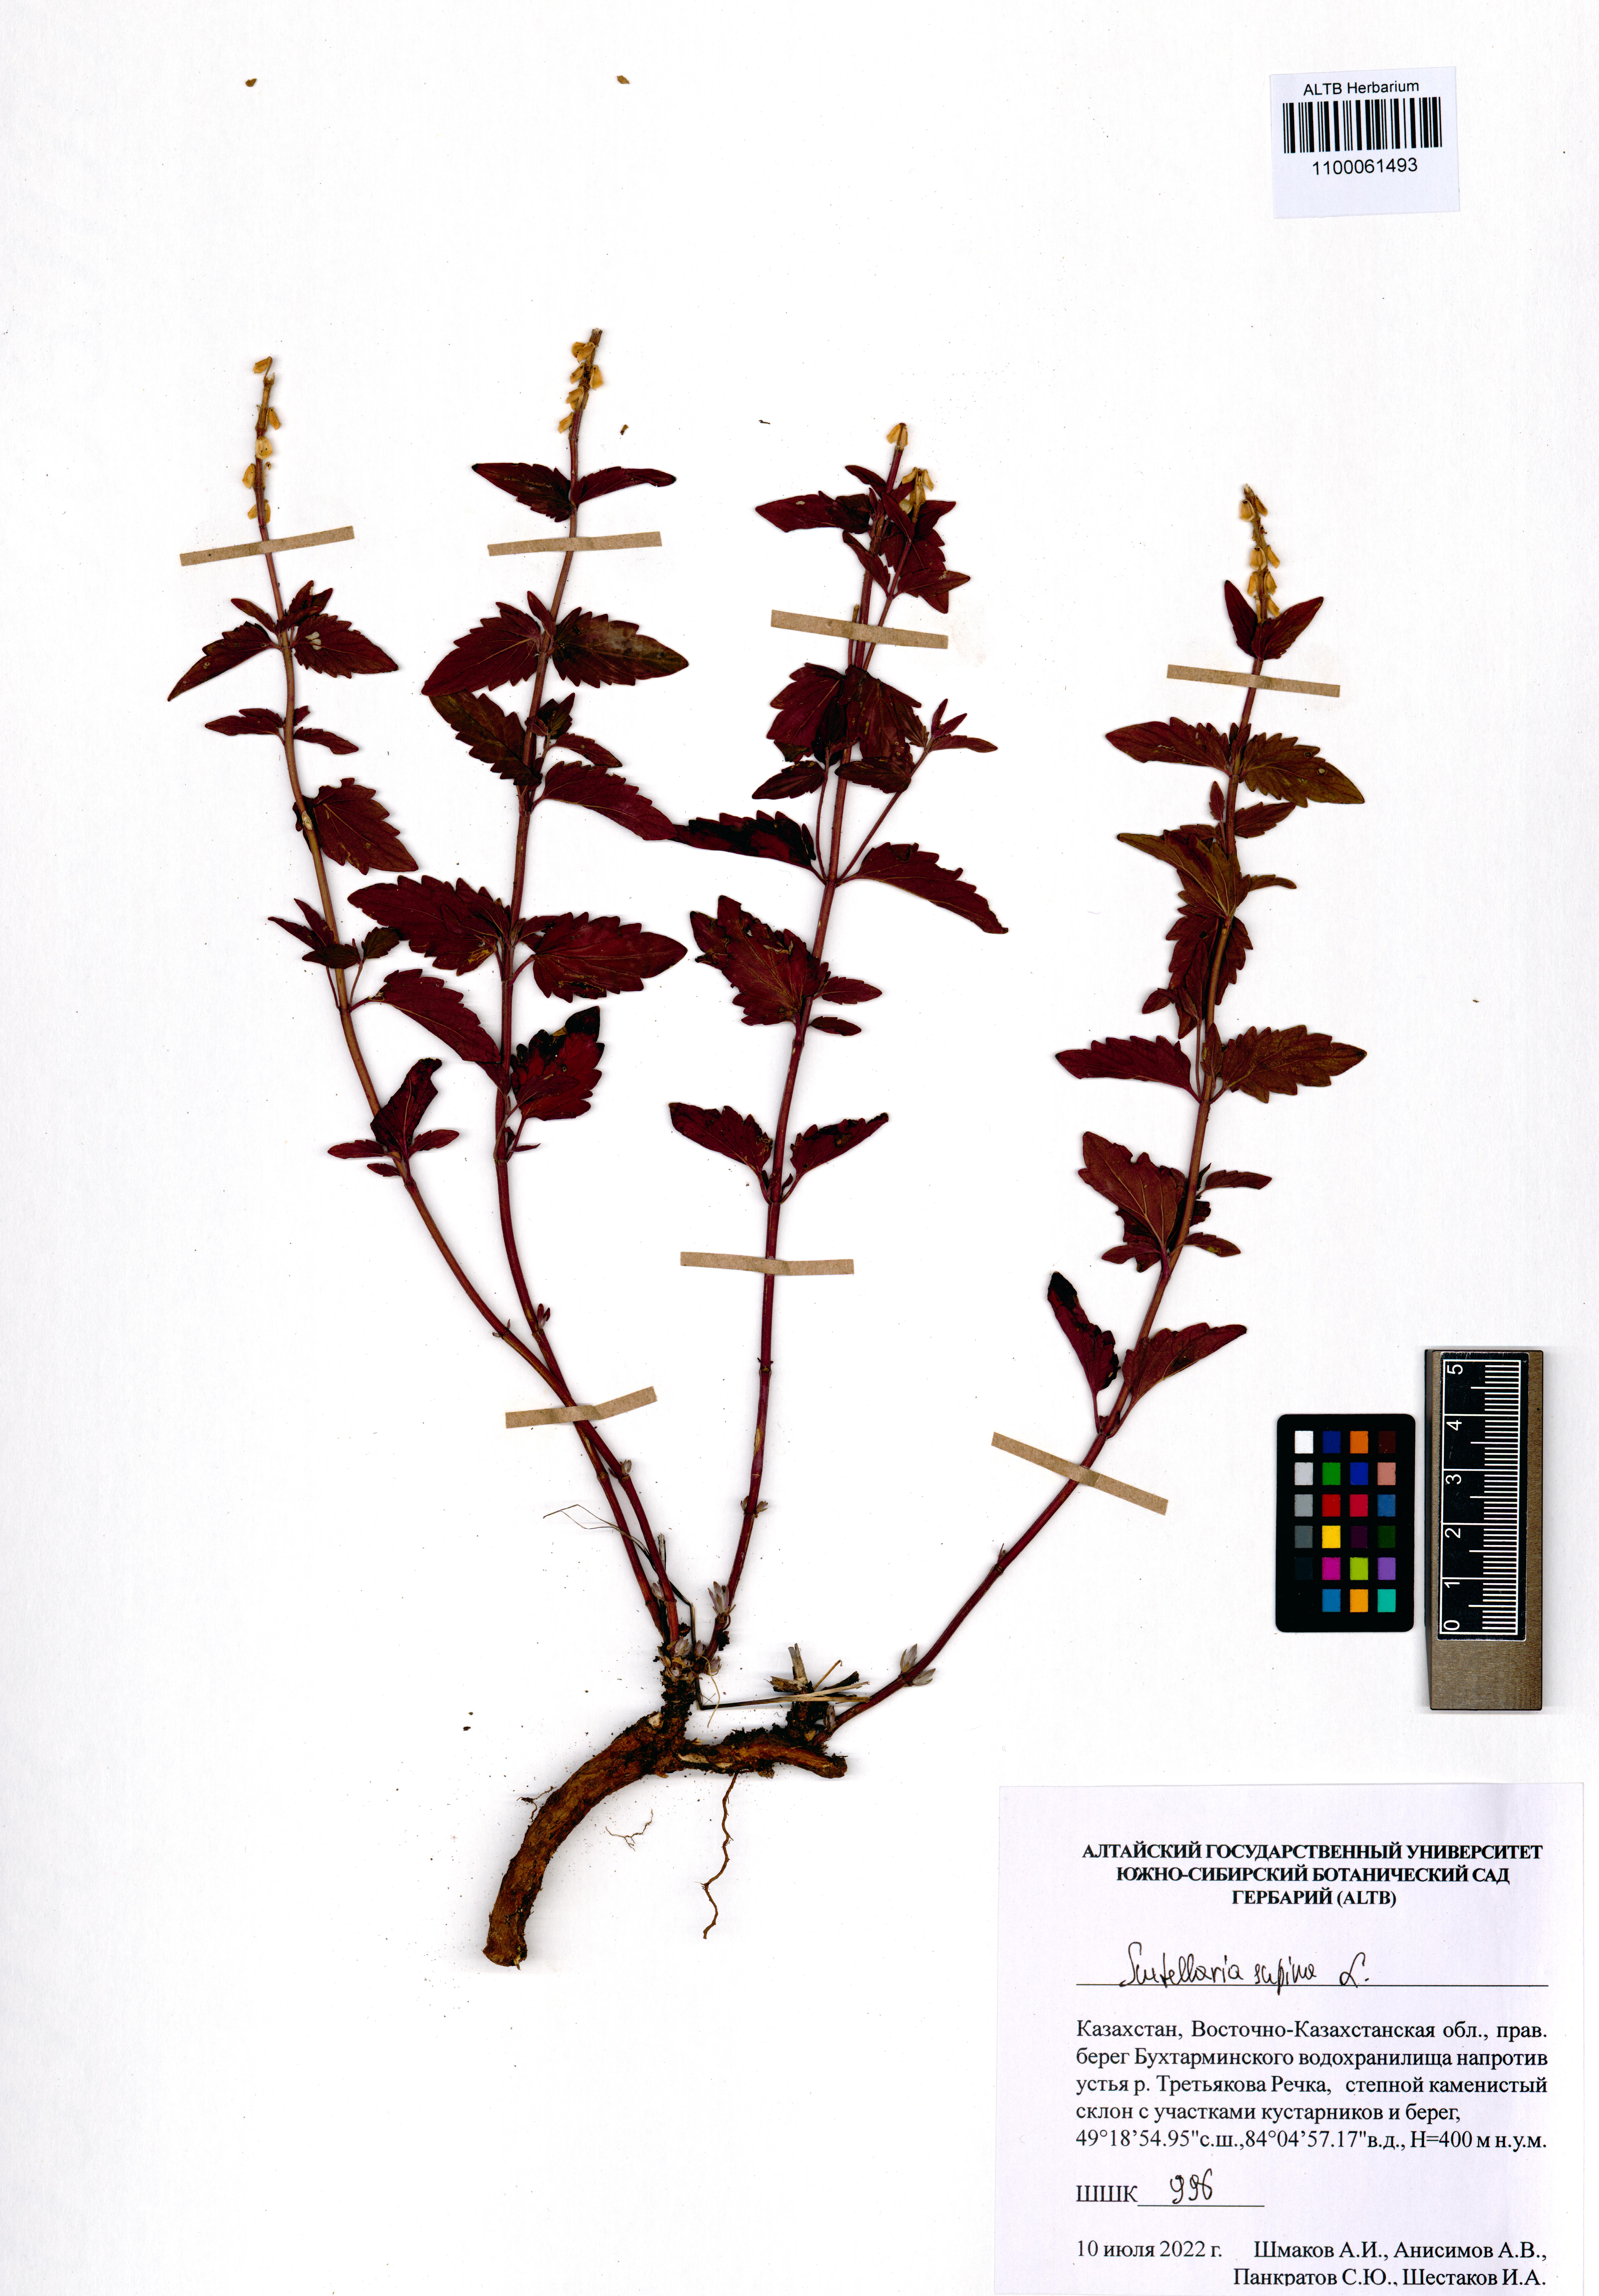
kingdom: Plantae
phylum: Tracheophyta
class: Magnoliopsida
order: Lamiales
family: Lamiaceae
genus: Scutellaria
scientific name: Scutellaria supina
